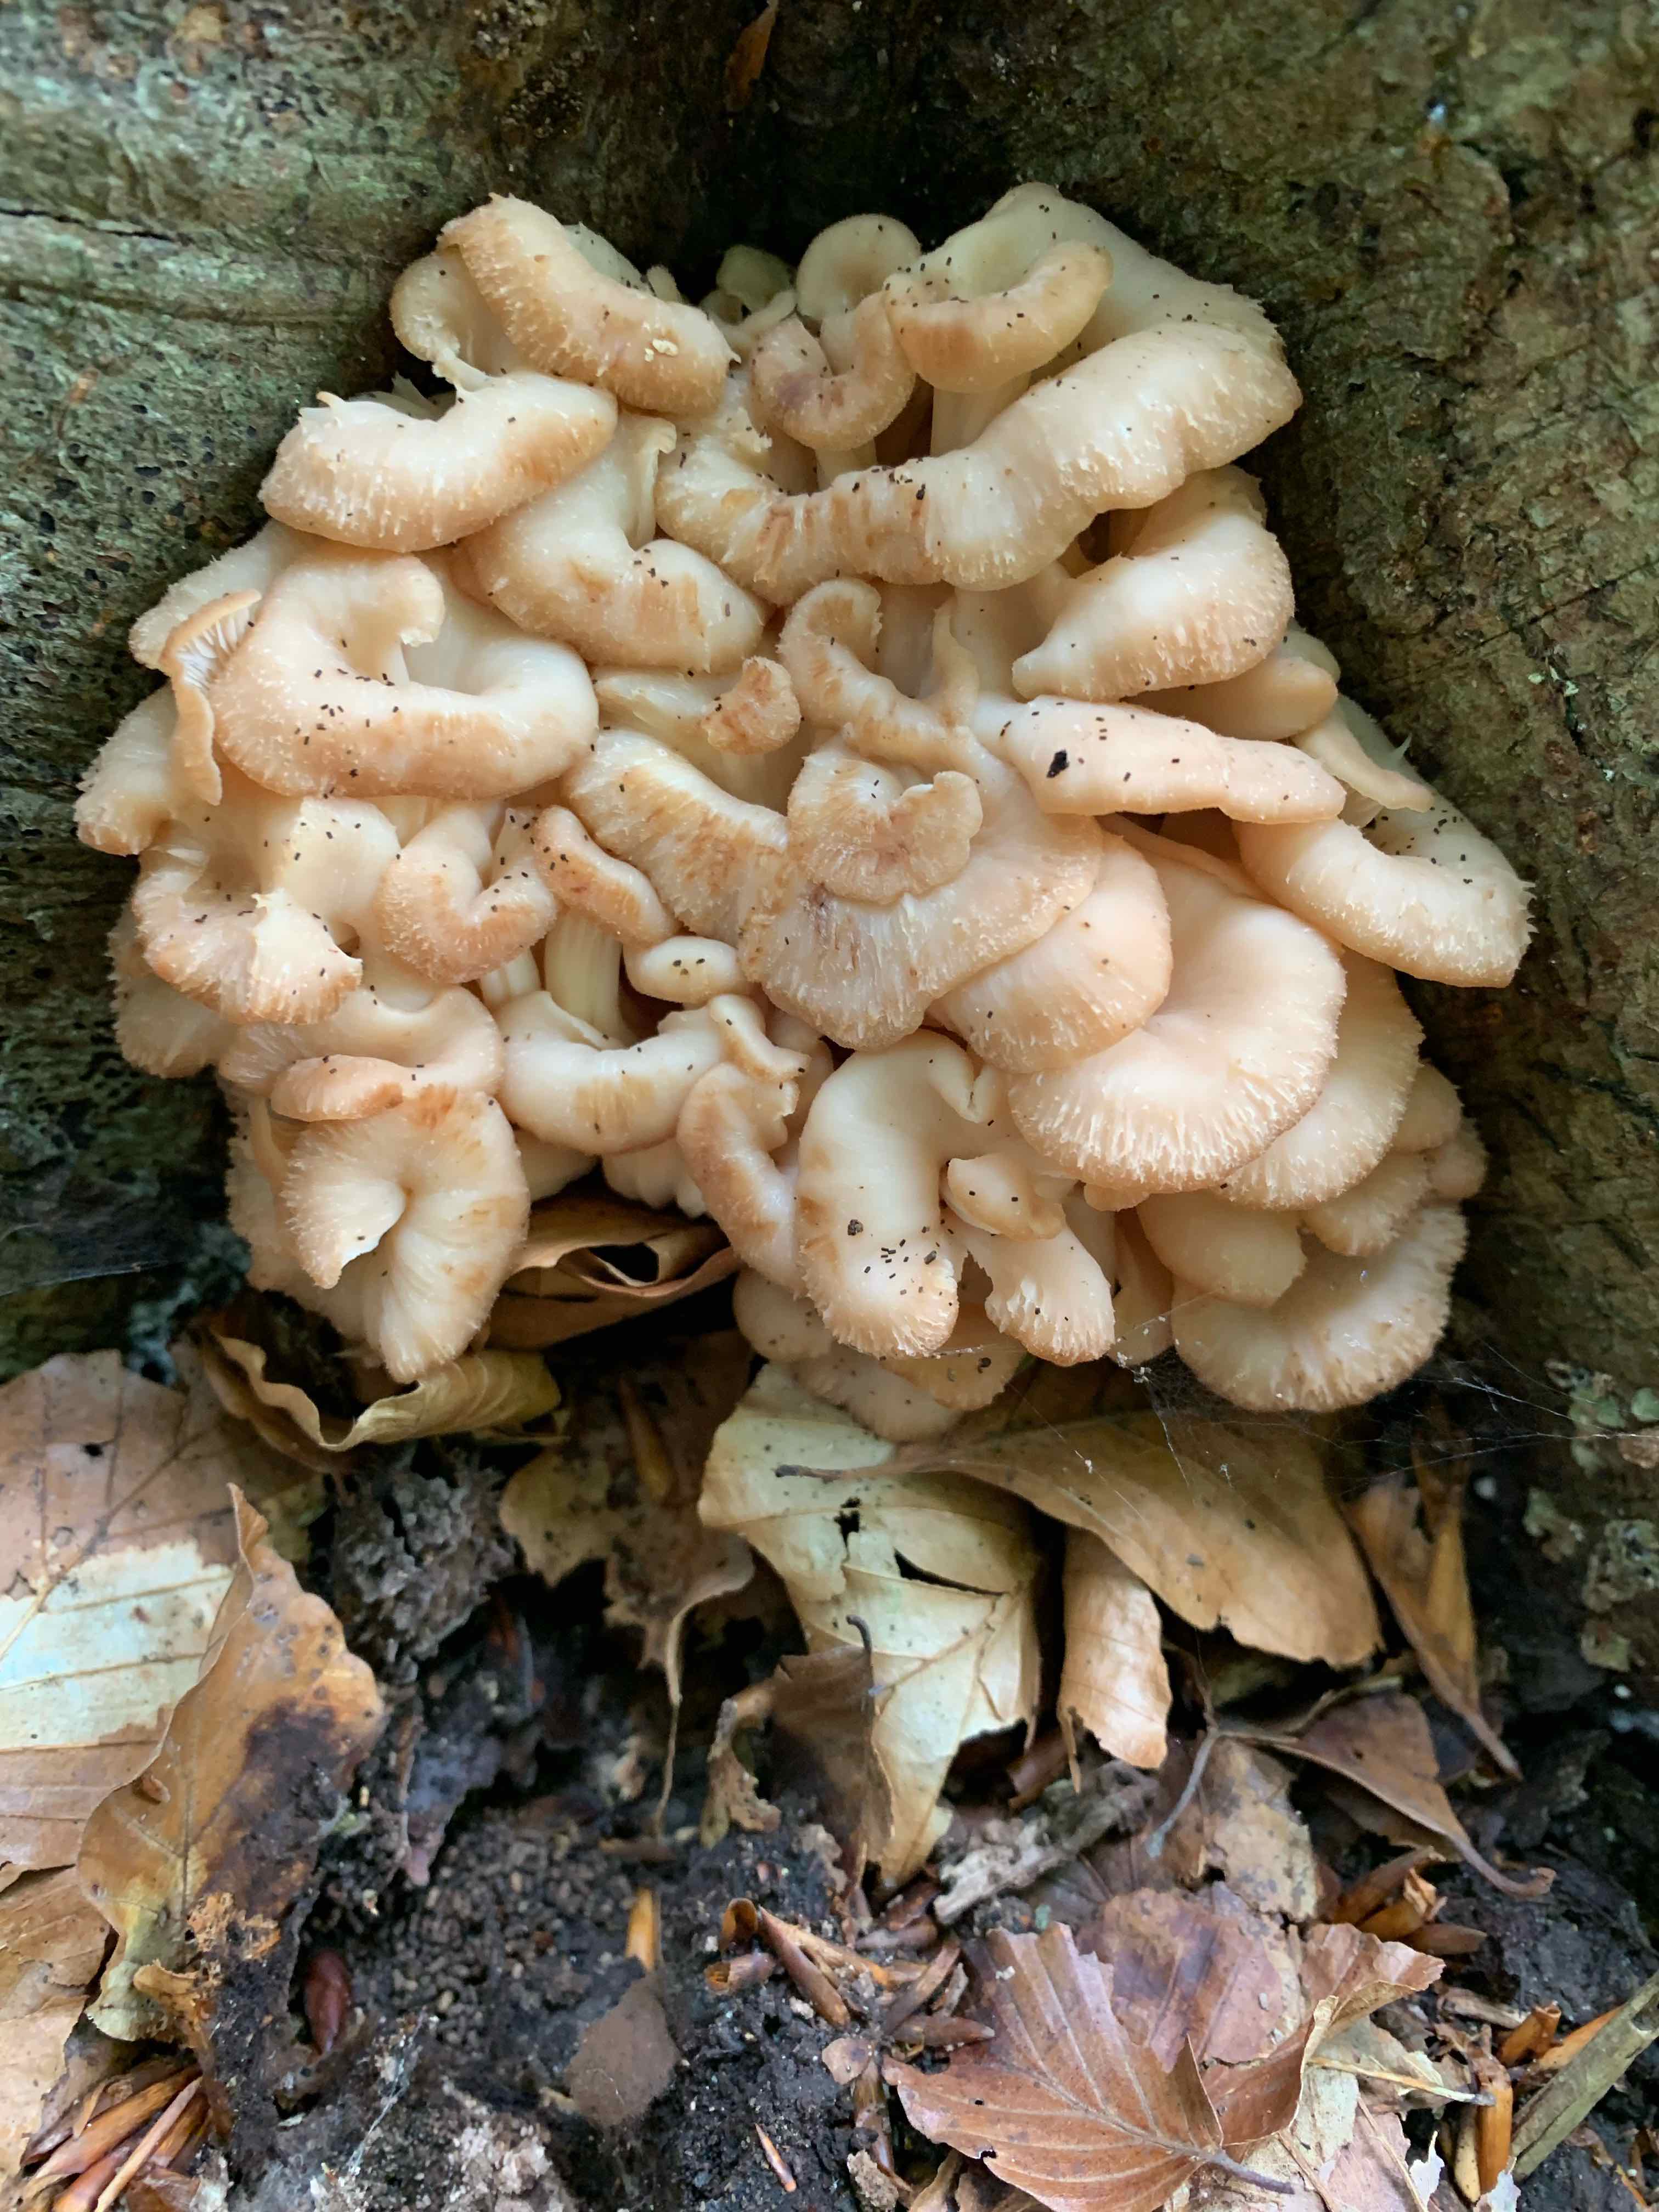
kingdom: Fungi
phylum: Basidiomycota
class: Agaricomycetes
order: Russulales
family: Auriscalpiaceae
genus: Lentinellus
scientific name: Lentinellus cochleatus
